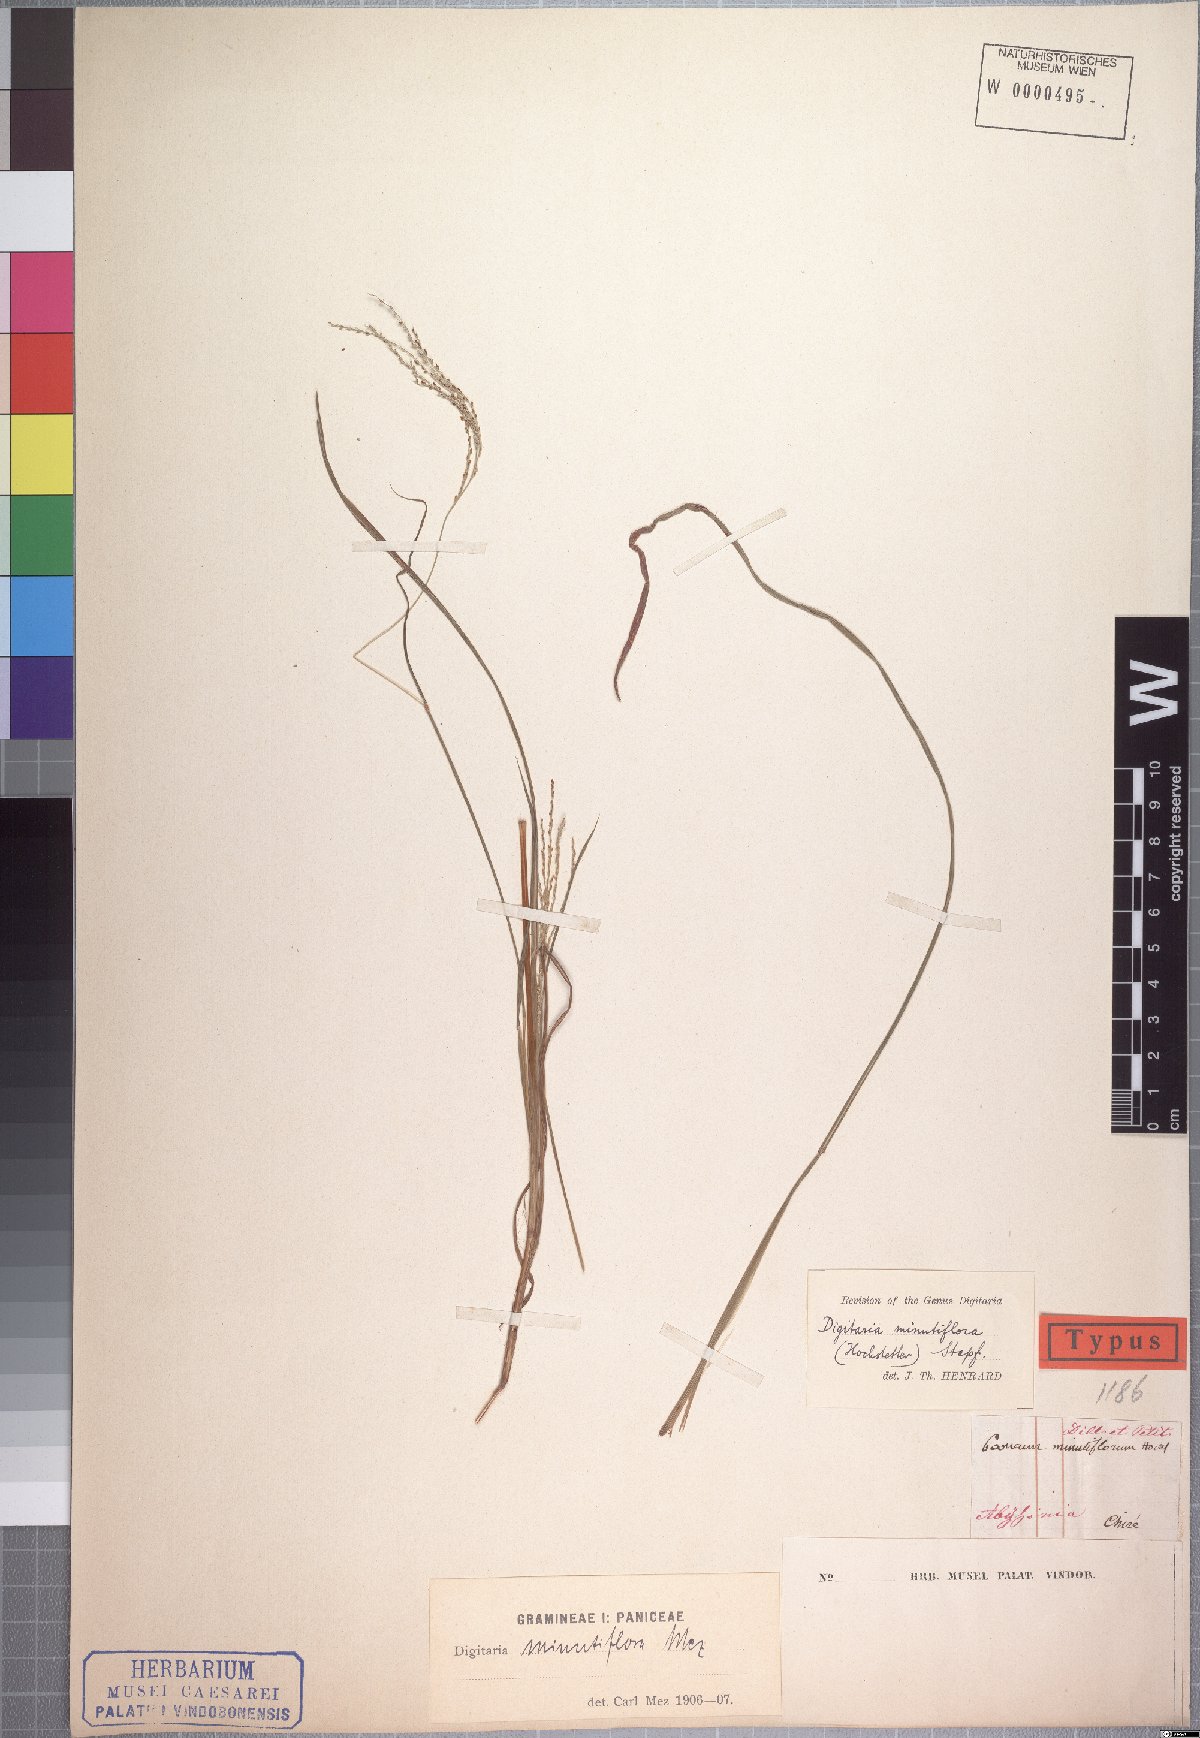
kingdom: Plantae
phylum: Tracheophyta
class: Liliopsida
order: Poales
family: Poaceae
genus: Digitaria
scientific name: Digitaria pseudodiagonalis
